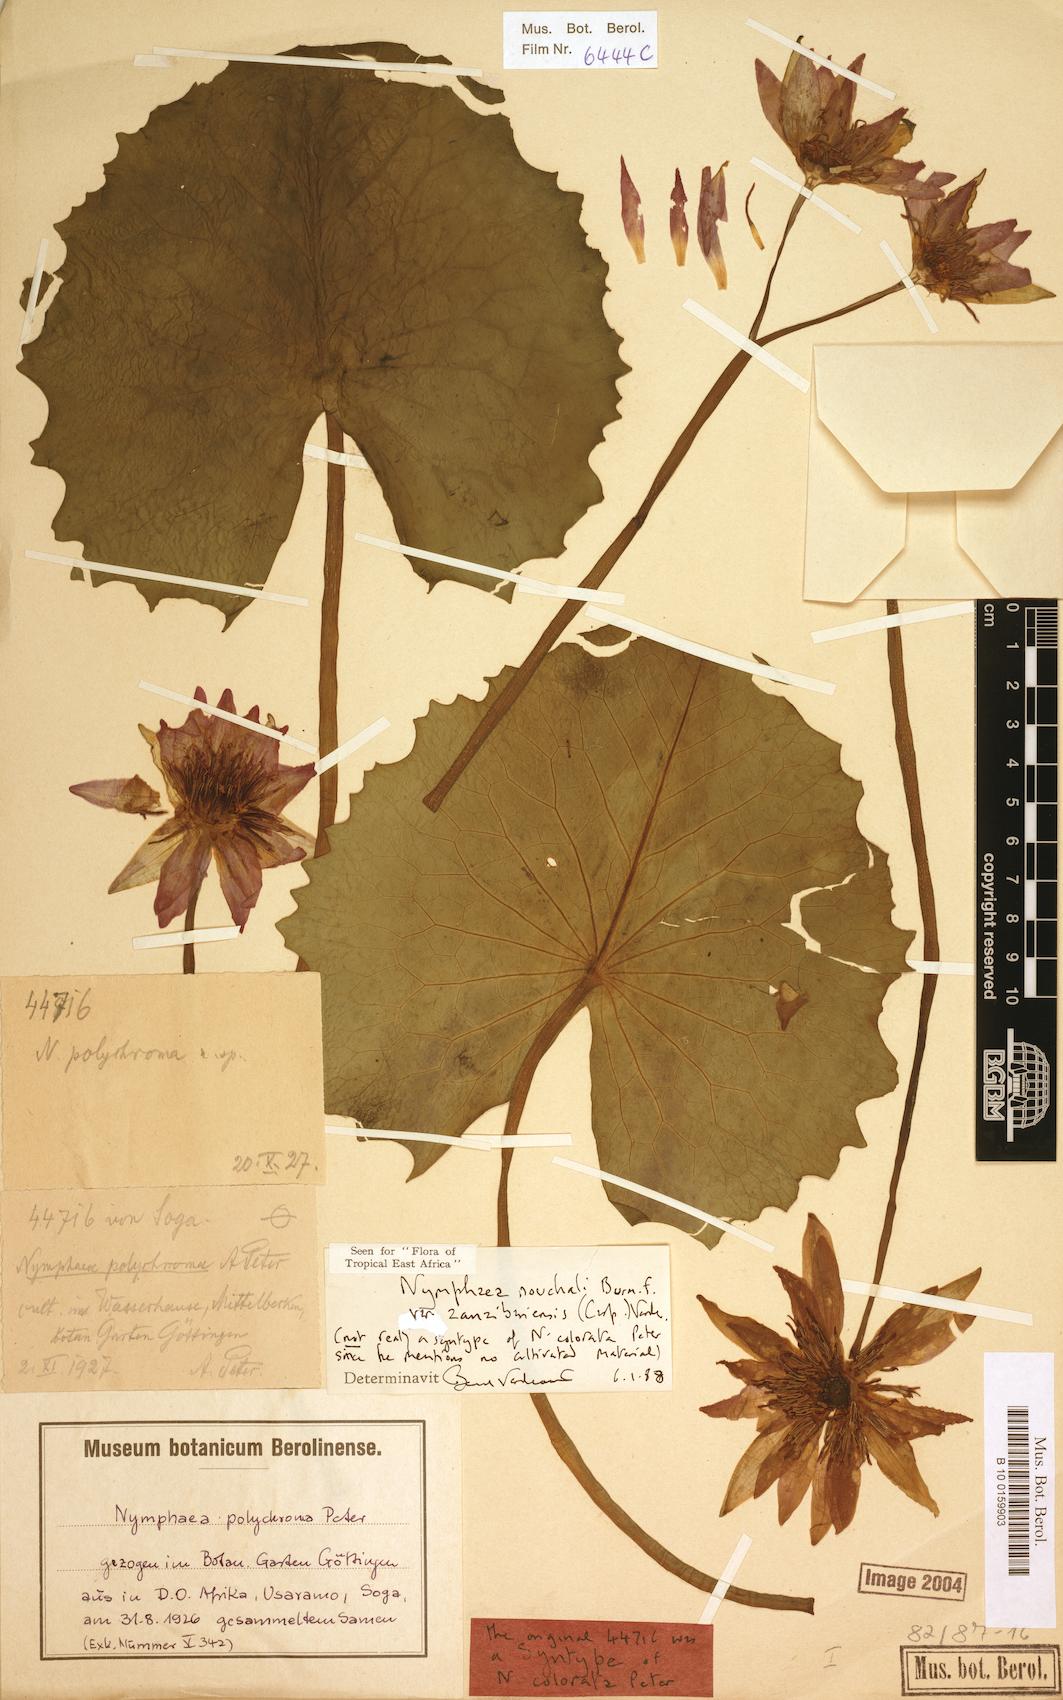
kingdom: Plantae
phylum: Tracheophyta
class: Magnoliopsida
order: Nymphaeales
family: Nymphaeaceae
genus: Nymphaea
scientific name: Nymphaea nouchali
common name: Blue lotus
